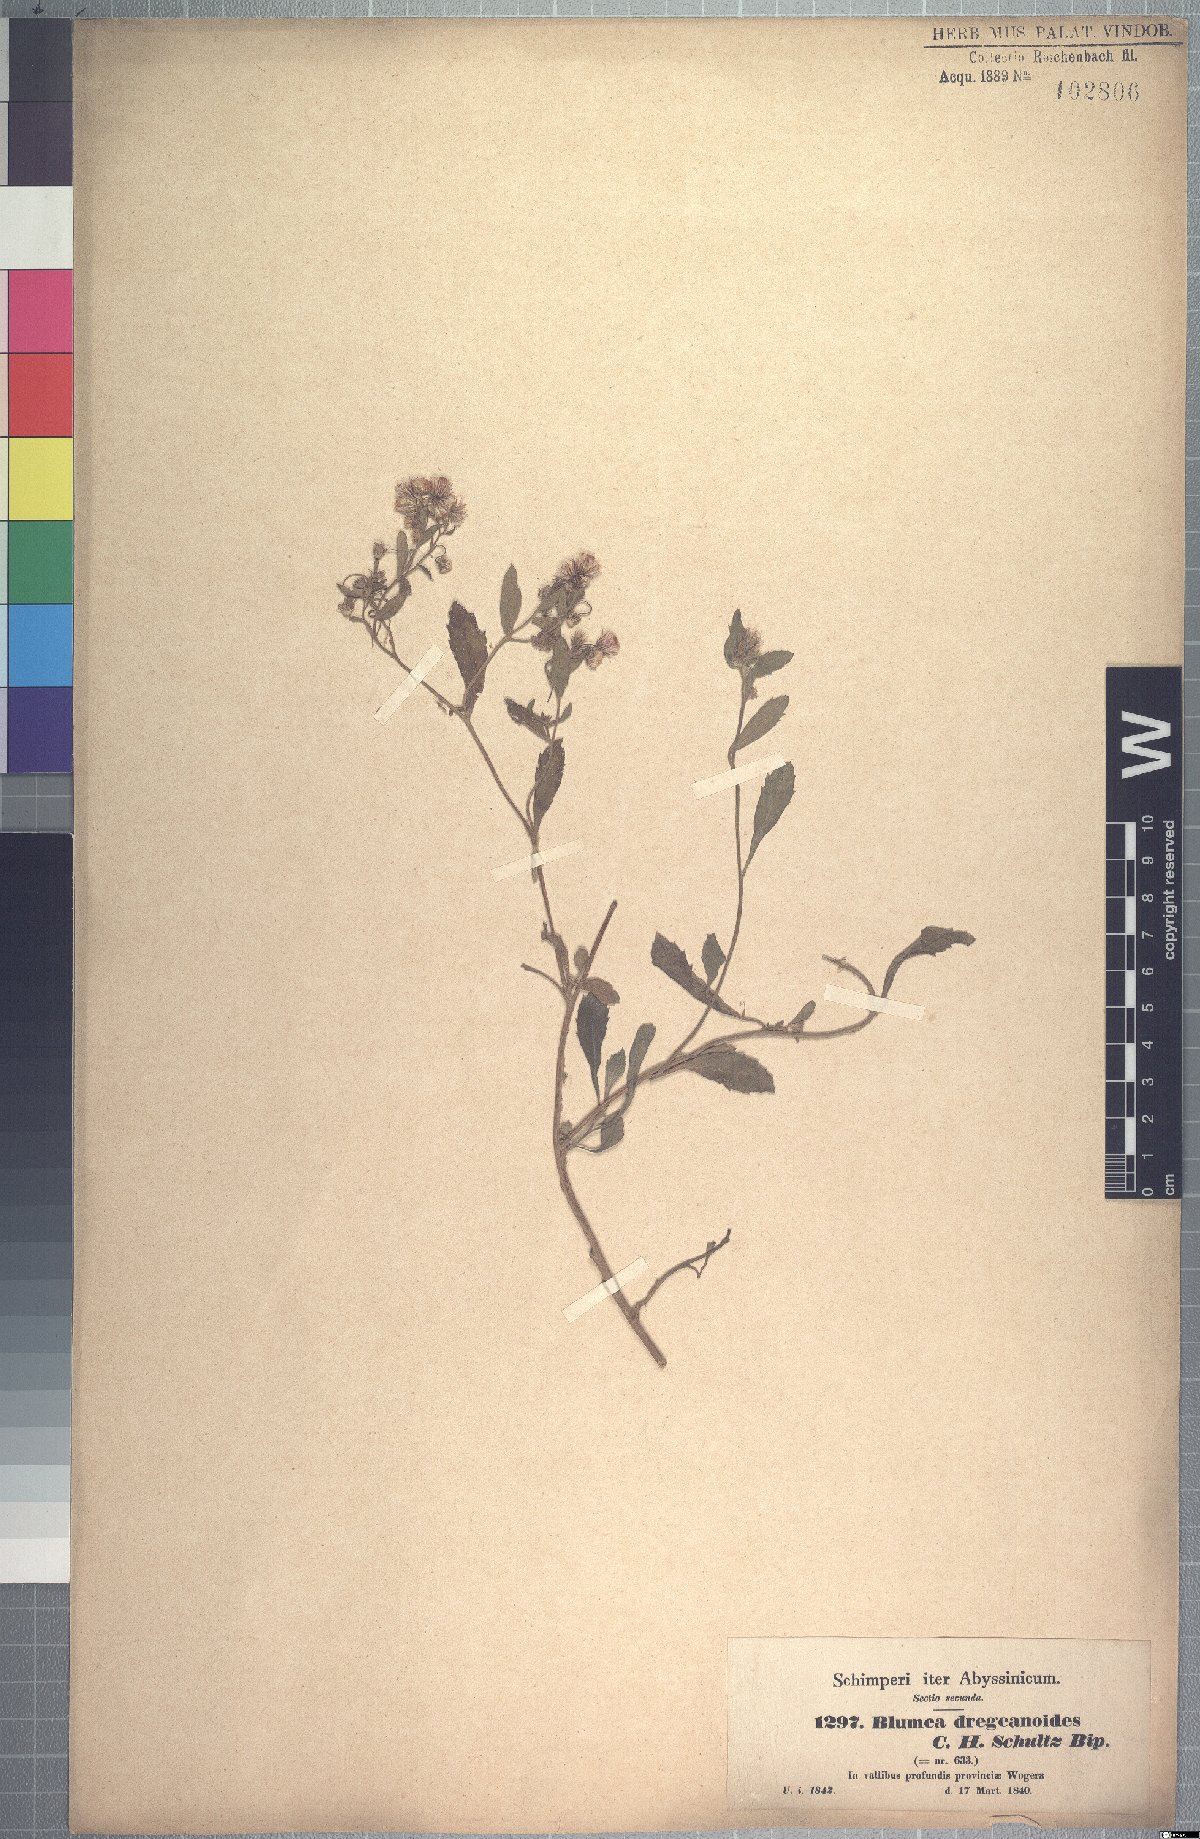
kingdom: Plantae
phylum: Tracheophyta
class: Magnoliopsida
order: Asterales
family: Asteraceae
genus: Blumea
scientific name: Blumea lacera
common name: Malay blumea
